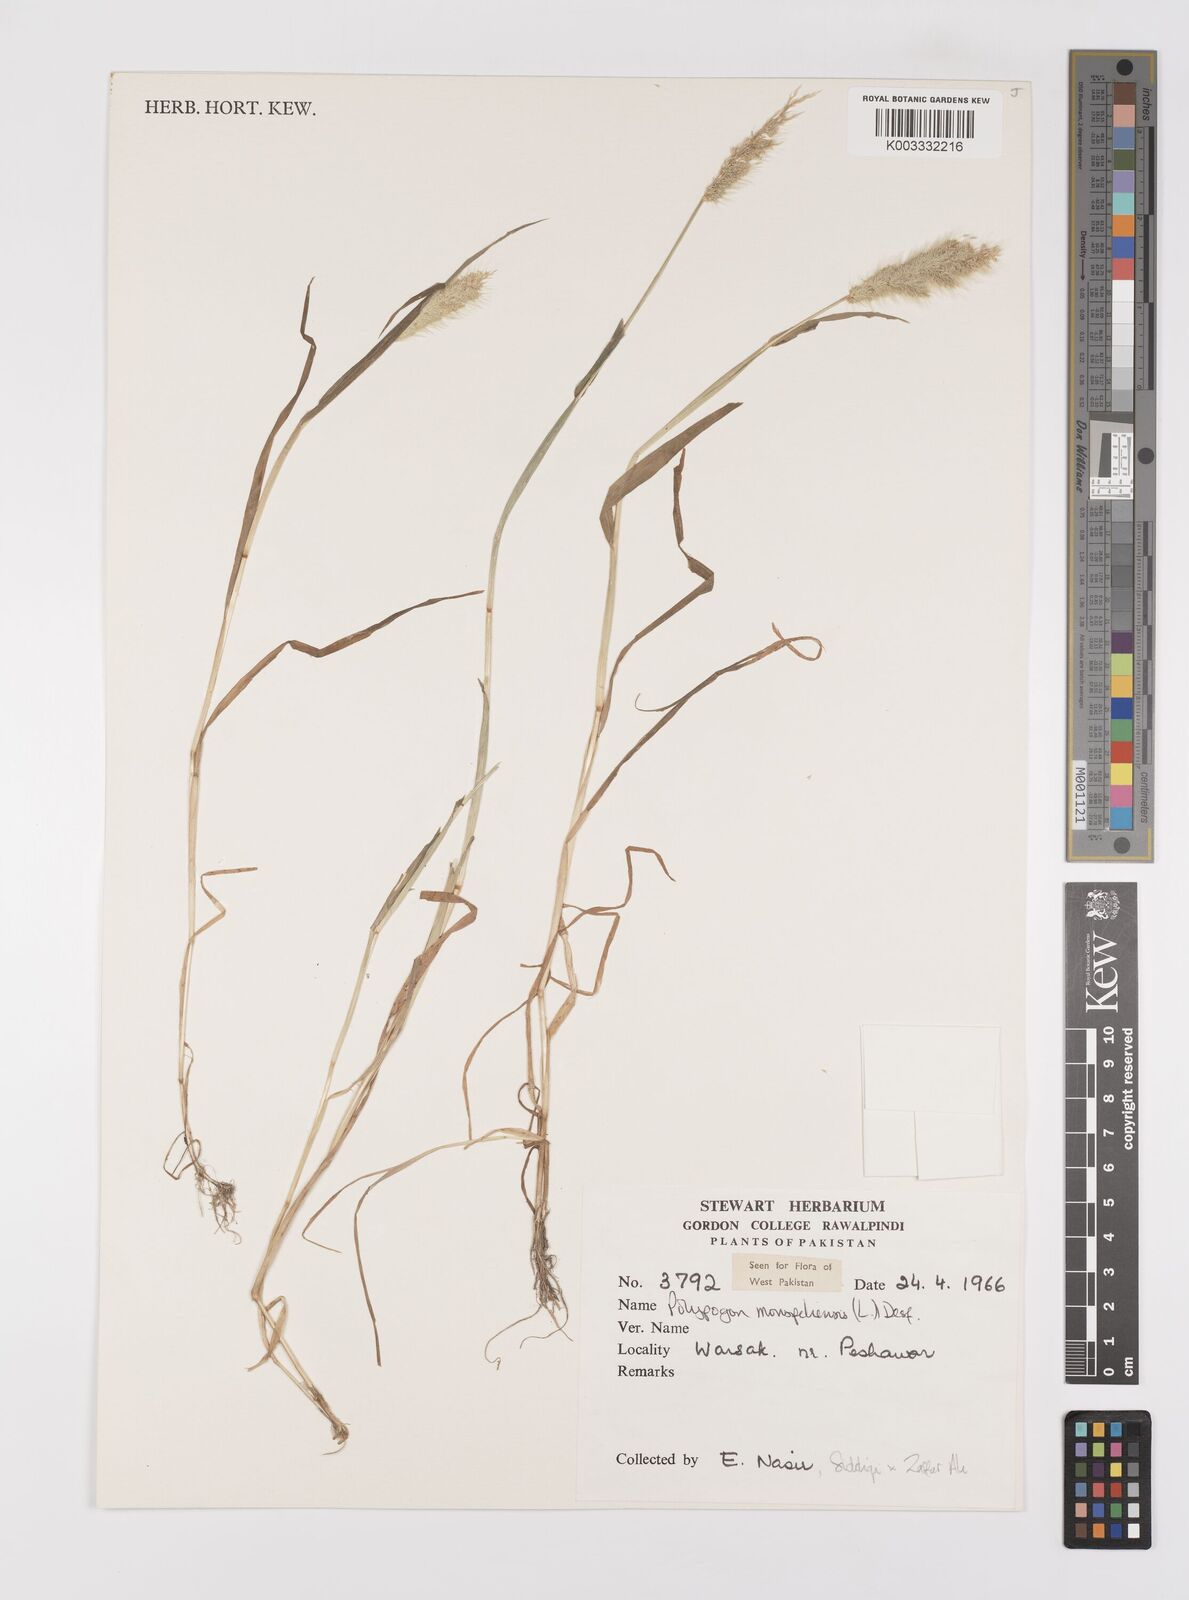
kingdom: Plantae
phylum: Tracheophyta
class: Liliopsida
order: Poales
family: Poaceae
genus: Polypogon
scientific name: Polypogon monspeliensis
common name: Annual rabbitsfoot grass
